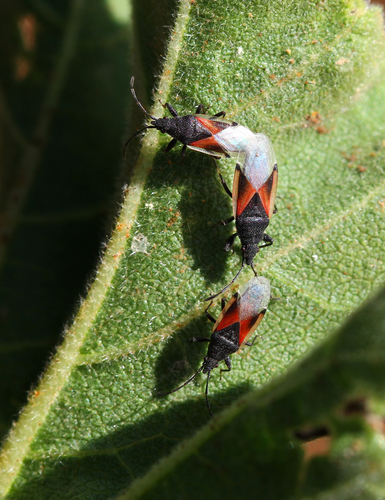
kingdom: Animalia
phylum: Arthropoda
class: Insecta
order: Hemiptera
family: Oxycarenidae
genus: Oxycarenus
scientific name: Oxycarenus lavaterae
